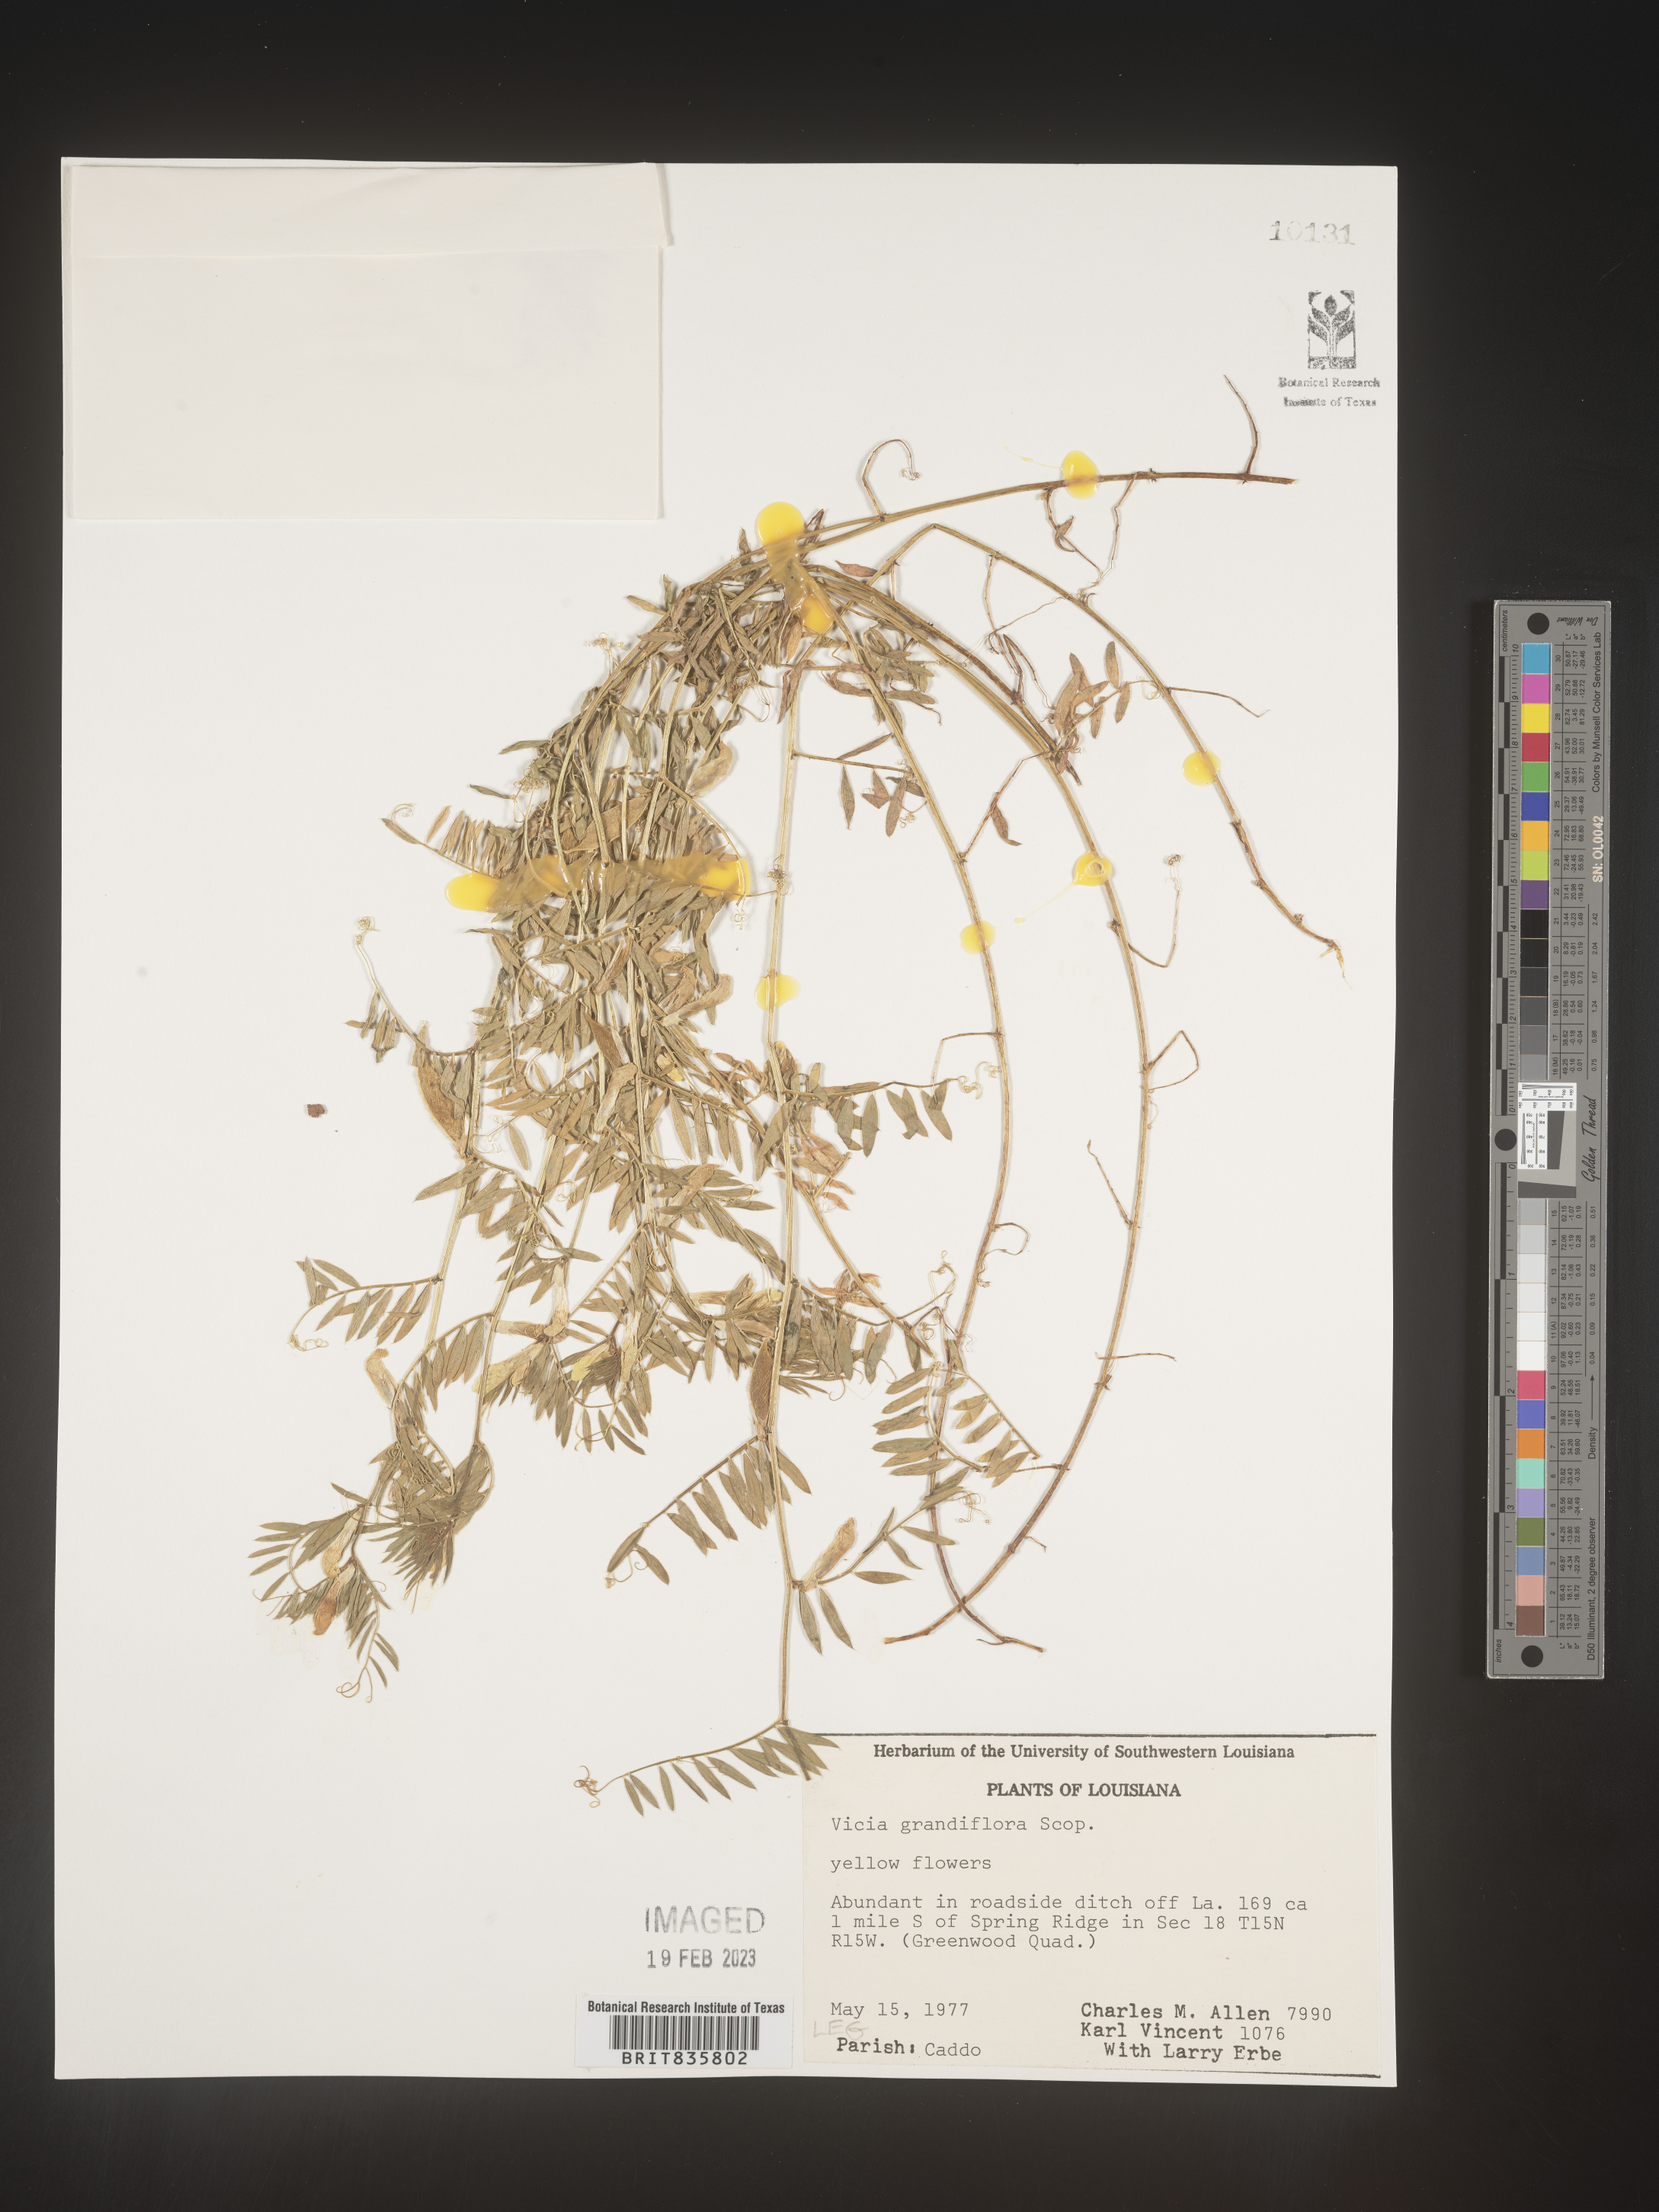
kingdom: Plantae
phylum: Tracheophyta
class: Magnoliopsida
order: Fabales
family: Fabaceae
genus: Vicia
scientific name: Vicia grandiflora
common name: Large yellow vetch
